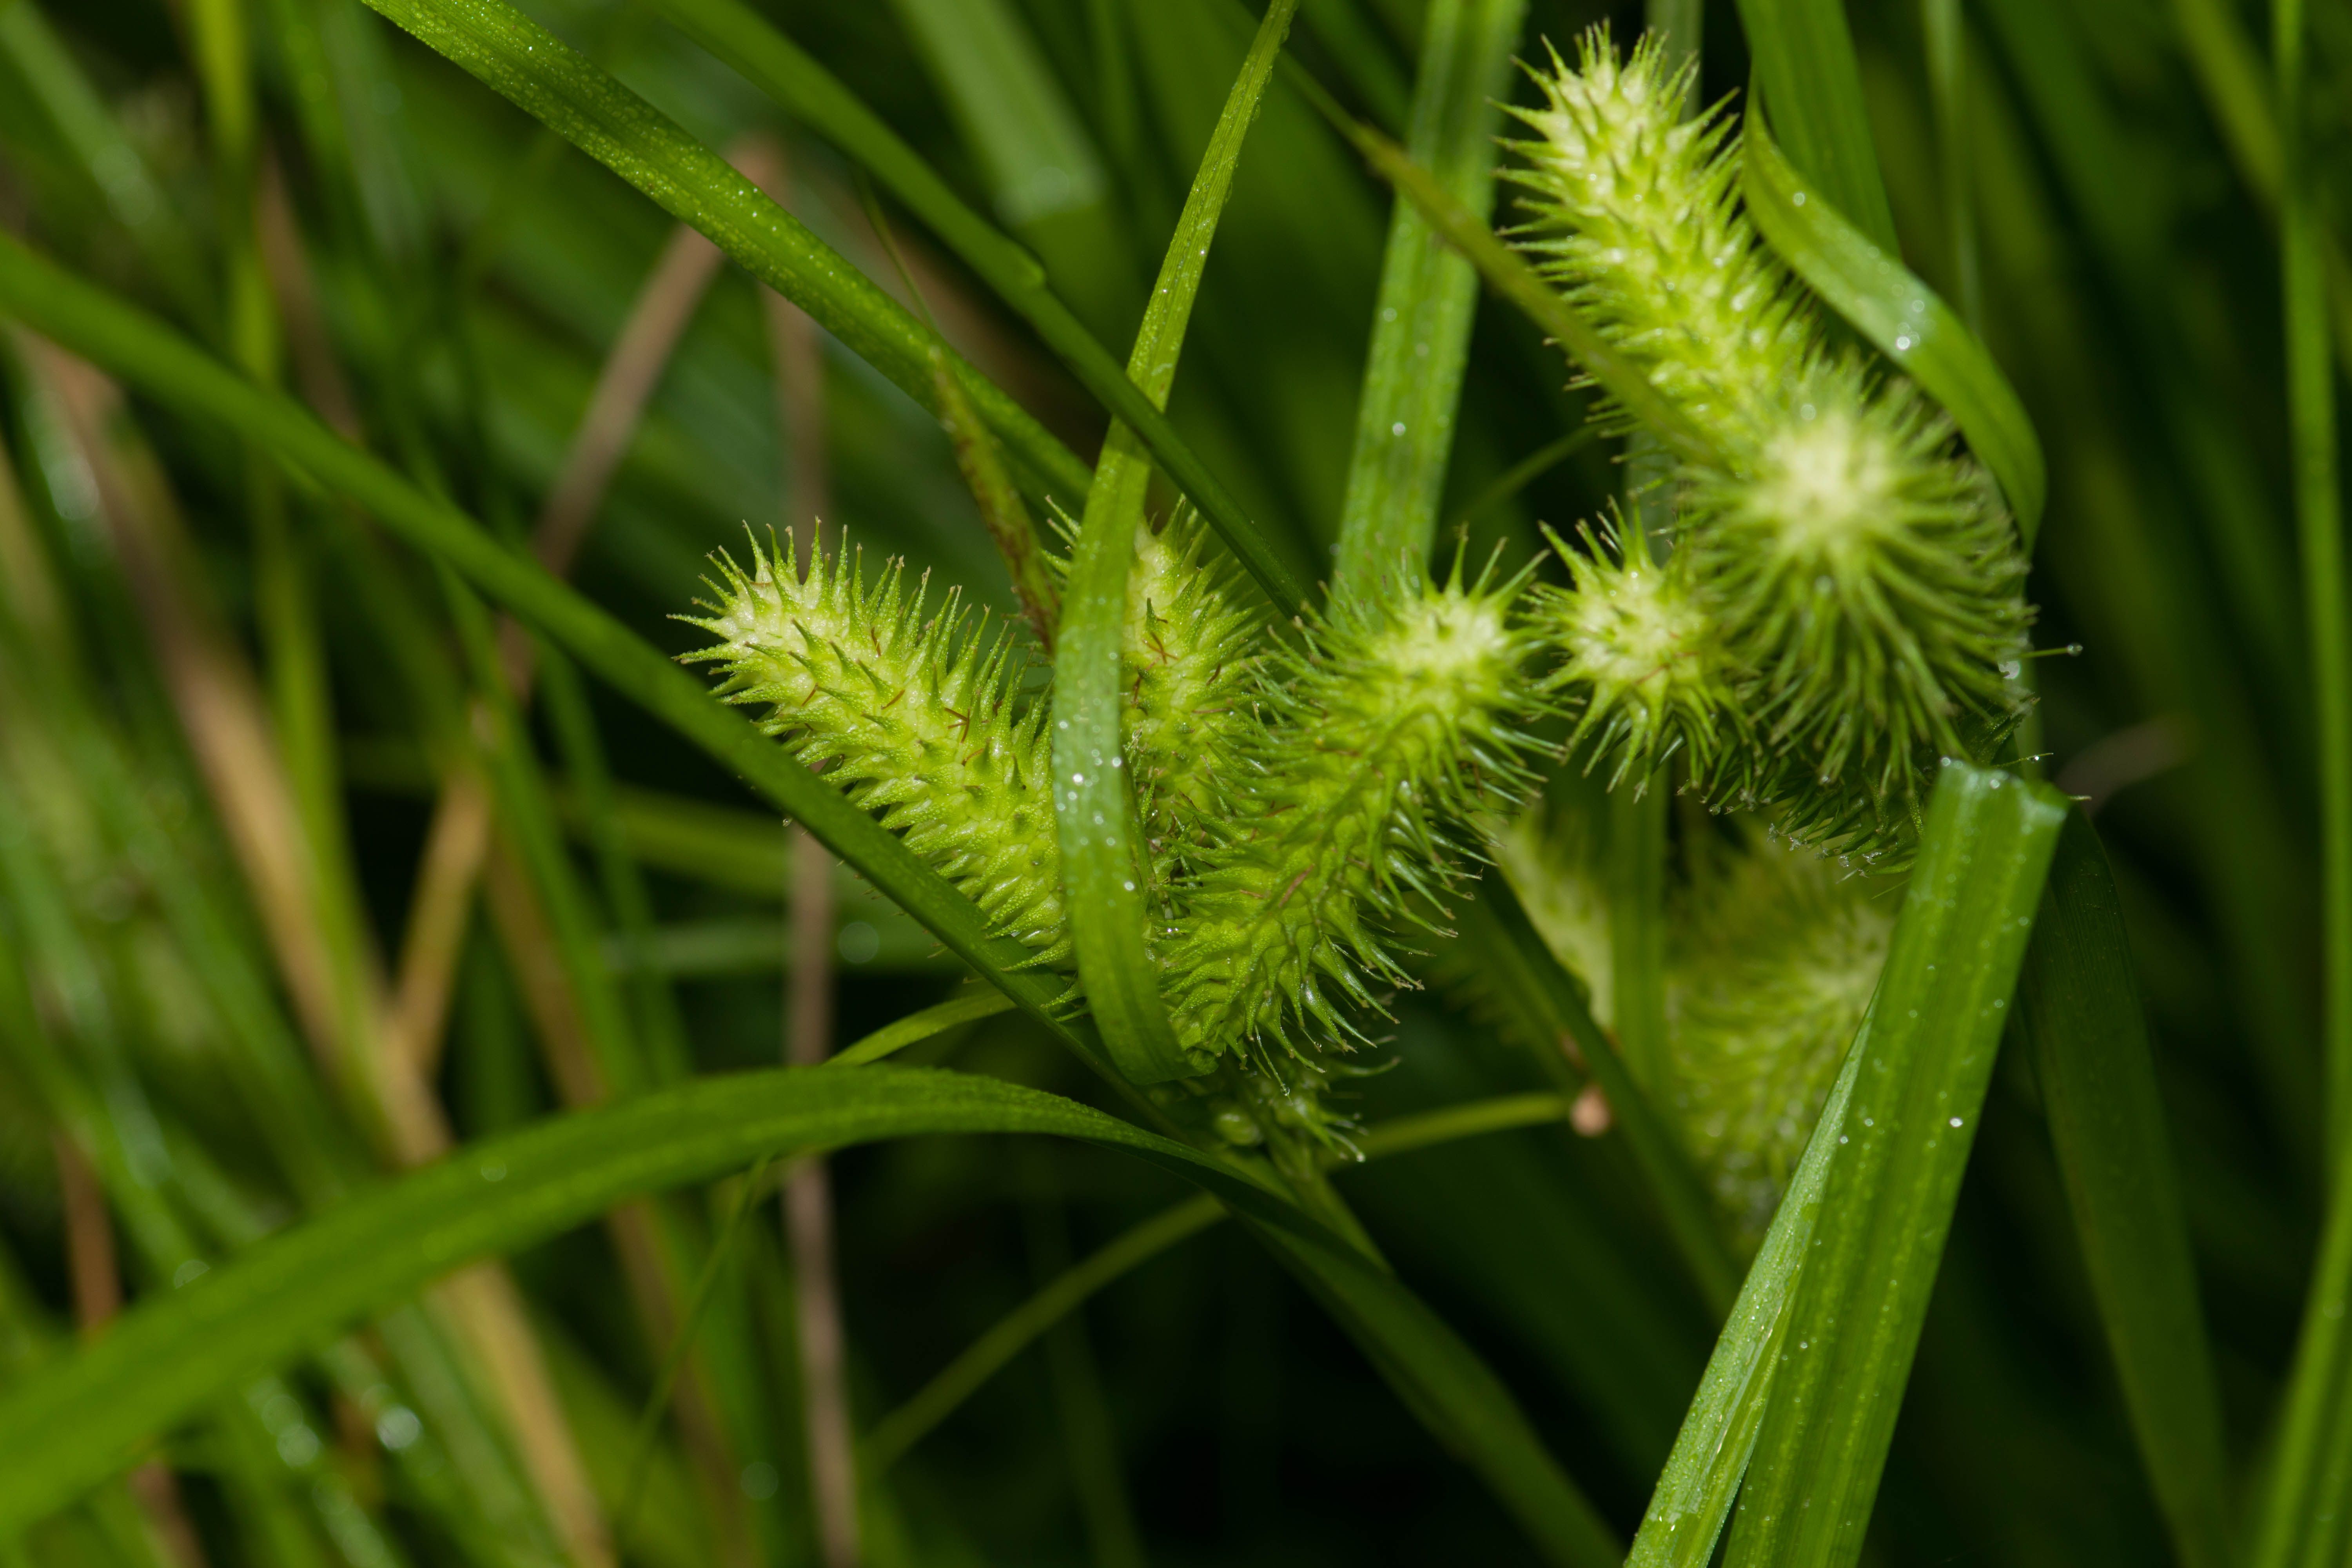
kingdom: Plantae
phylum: Tracheophyta
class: Liliopsida
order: Poales
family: Cyperaceae
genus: Carex
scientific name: Carex lurida
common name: Sallow sedge
